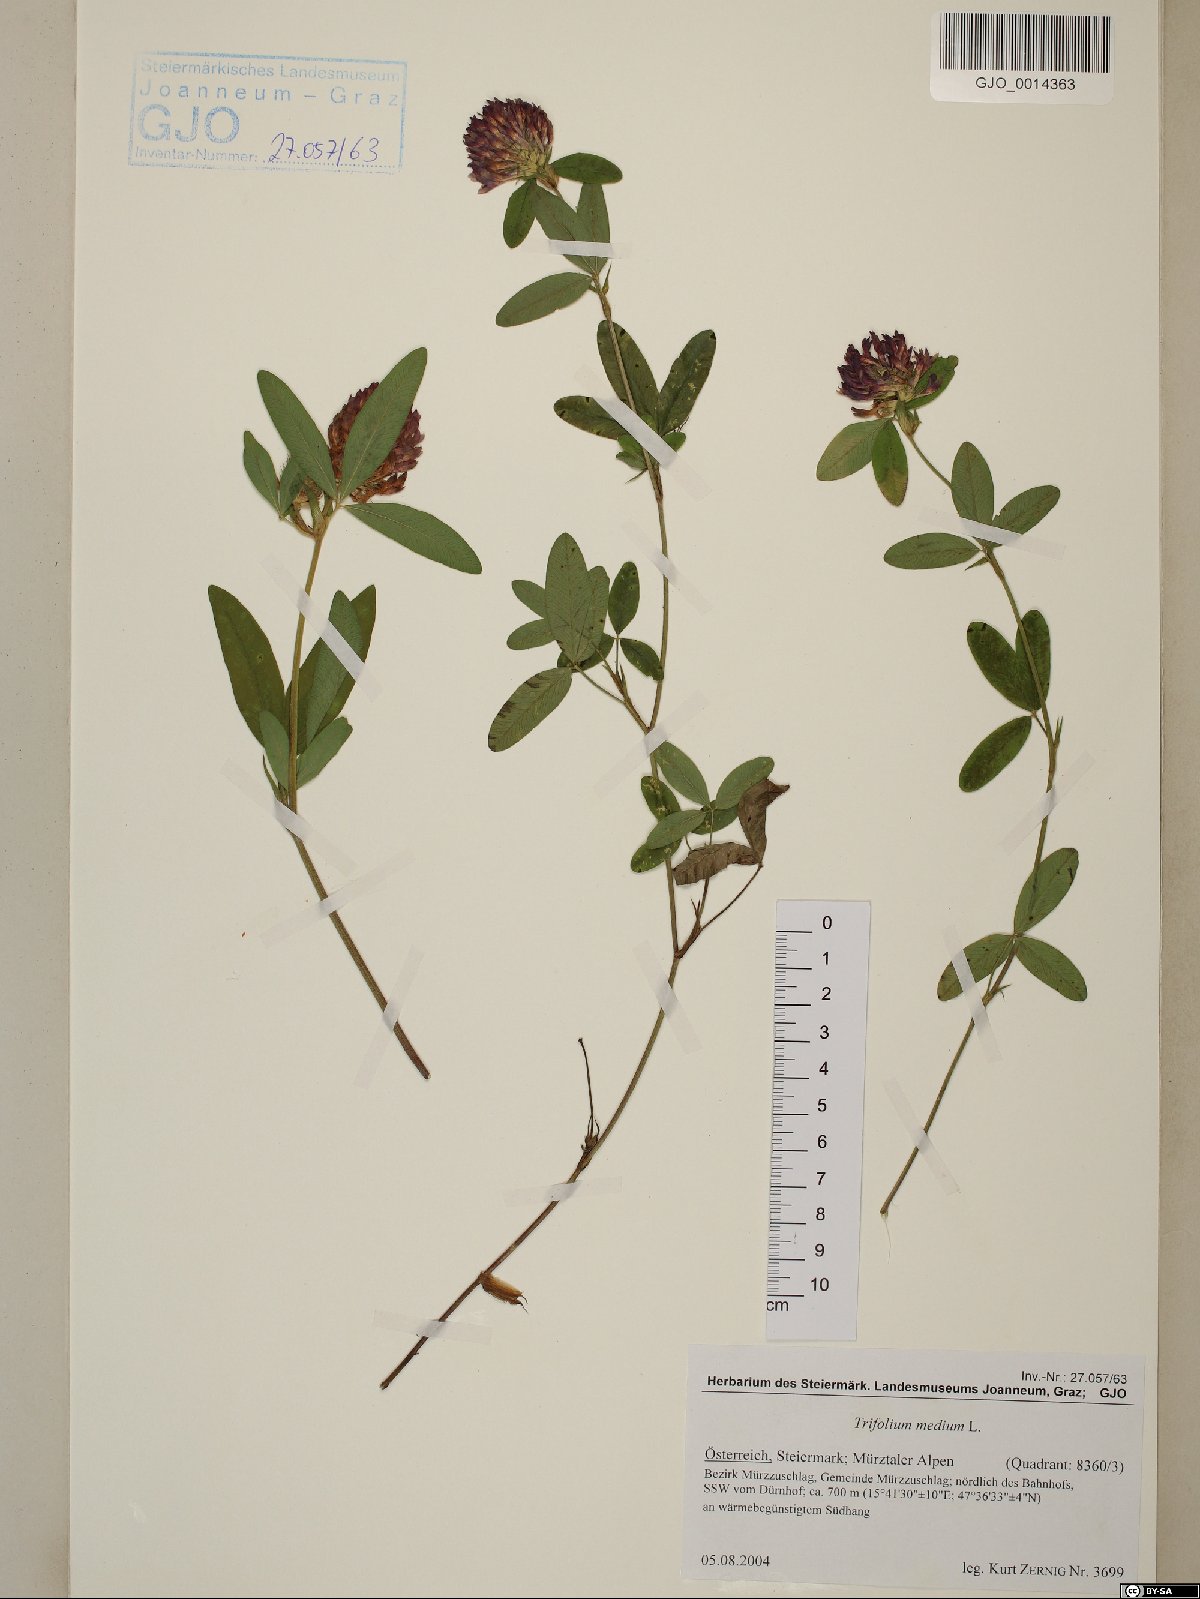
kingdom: Plantae
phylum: Tracheophyta
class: Magnoliopsida
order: Fabales
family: Fabaceae
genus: Trifolium
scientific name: Trifolium medium
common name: Zigzag clover
